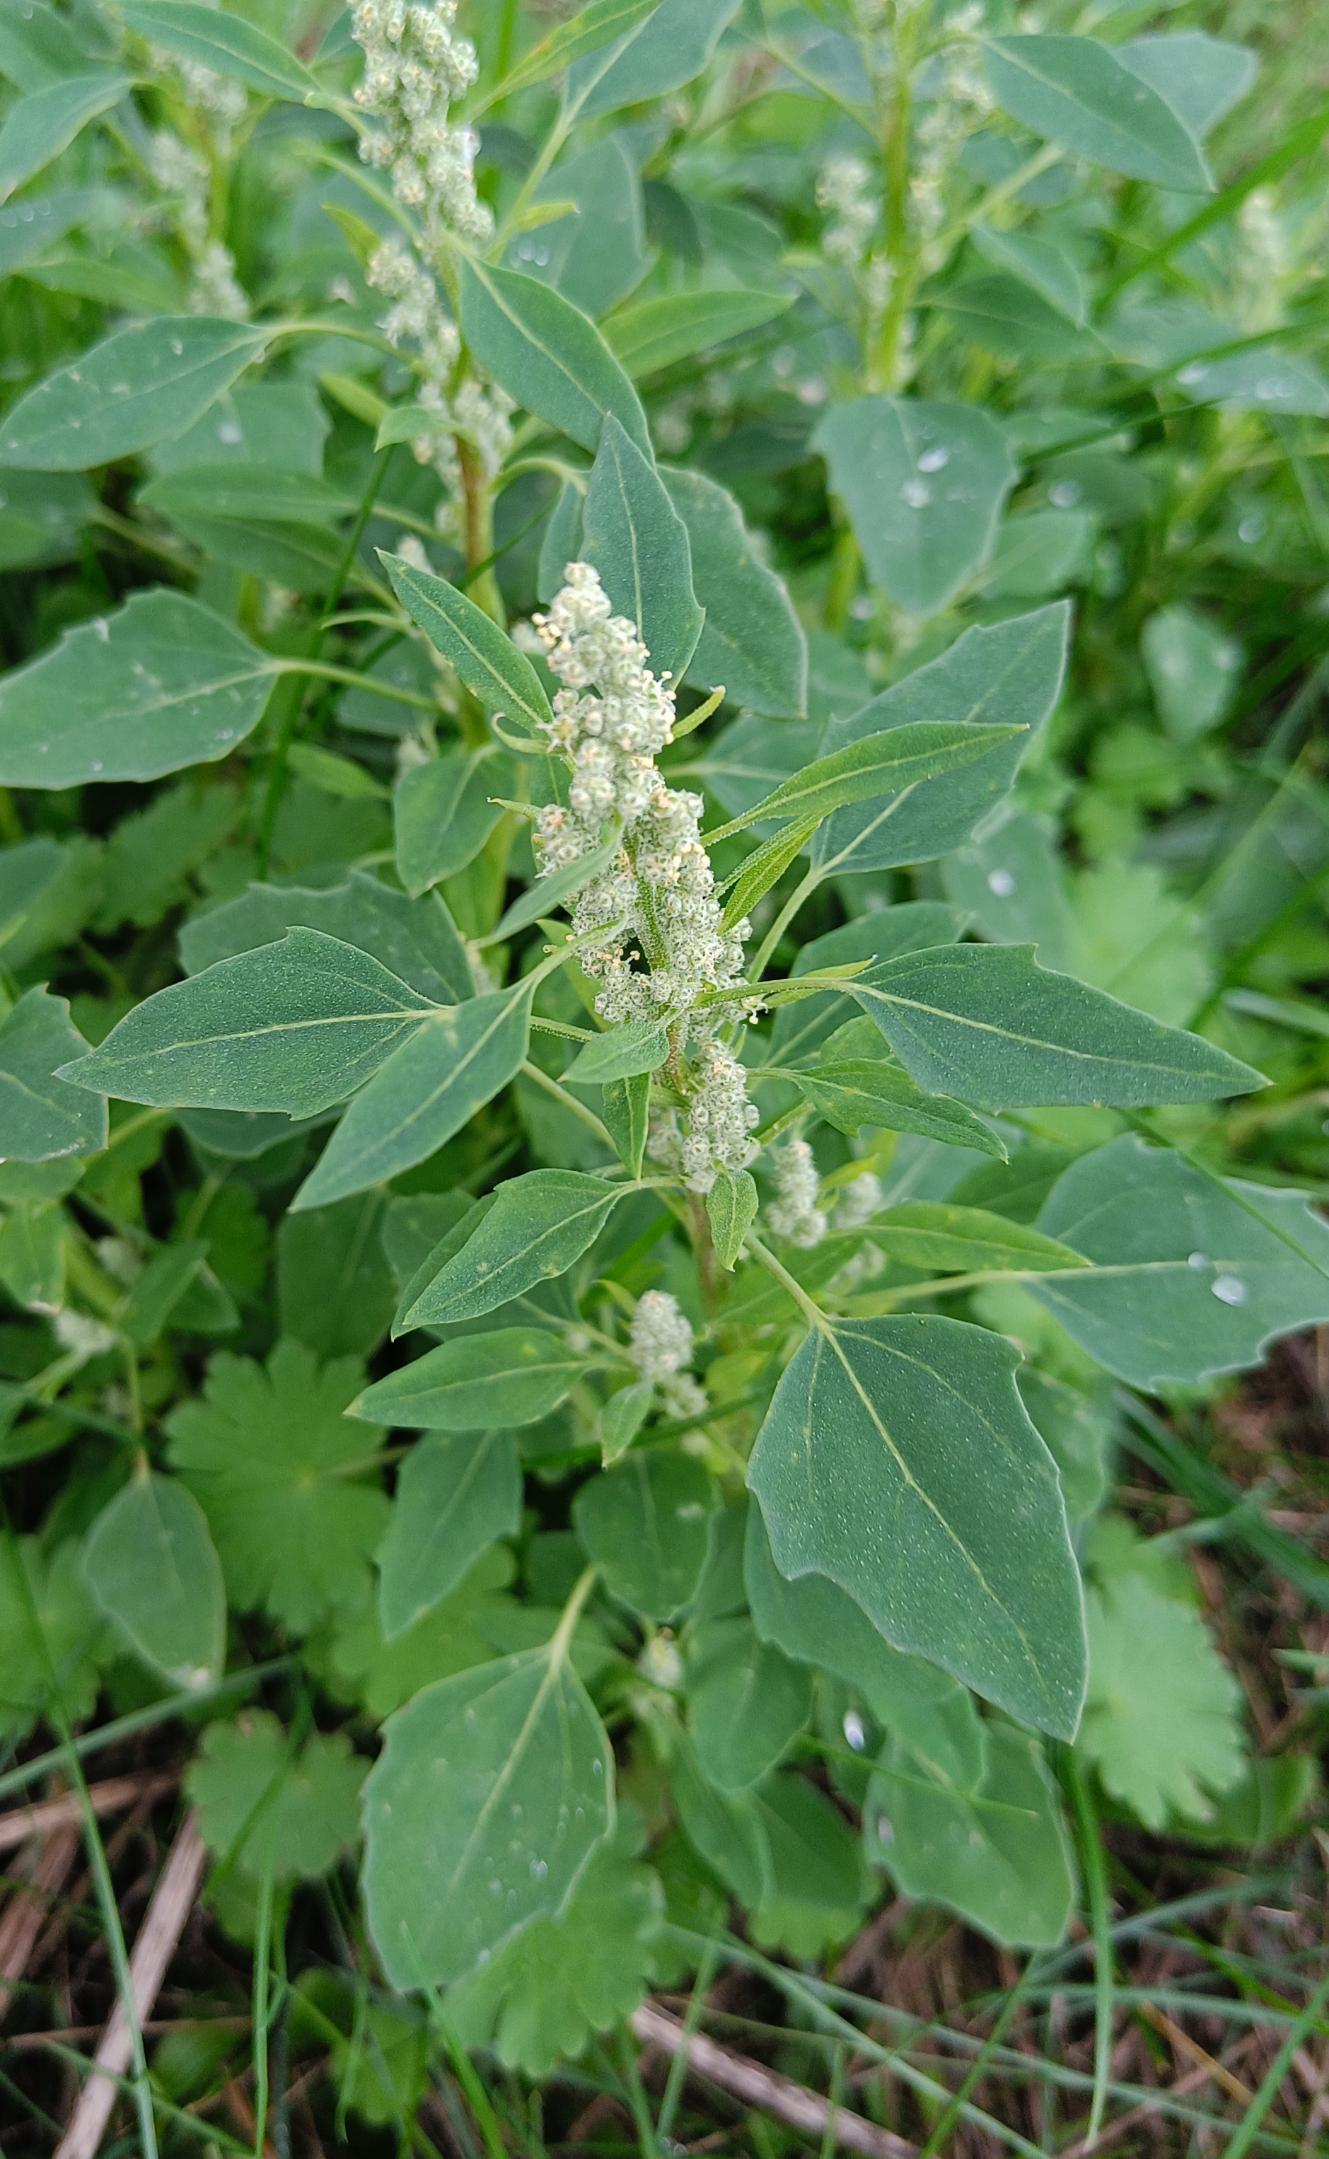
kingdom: Plantae
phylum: Tracheophyta
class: Magnoliopsida
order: Caryophyllales
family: Amaranthaceae
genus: Chenopodium
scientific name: Chenopodium album
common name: Hvidmelet gåsefod
